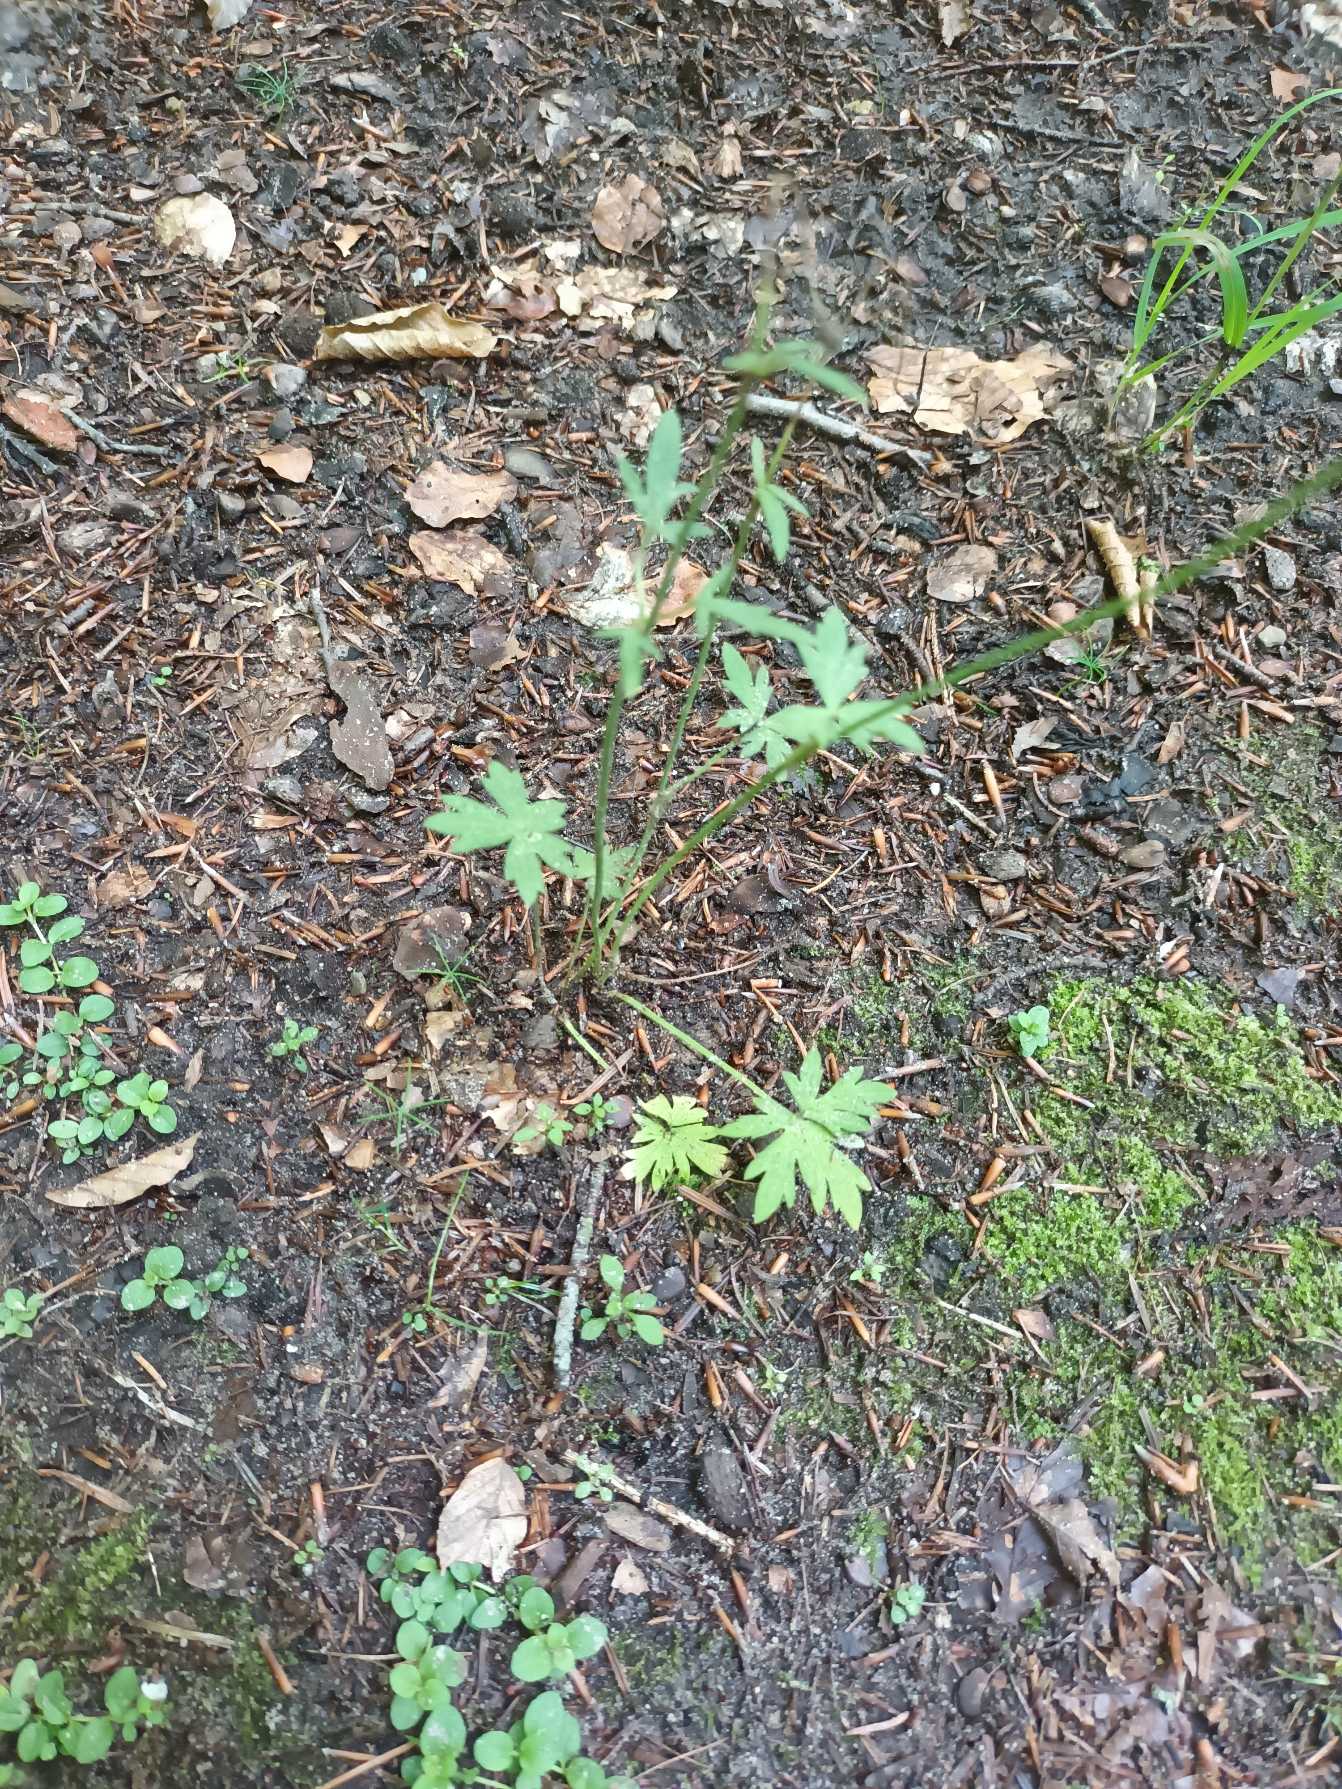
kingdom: Plantae
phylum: Tracheophyta
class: Magnoliopsida
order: Ranunculales
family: Ranunculaceae
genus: Ranunculus
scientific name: Ranunculus acris
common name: Bidende ranunkel
